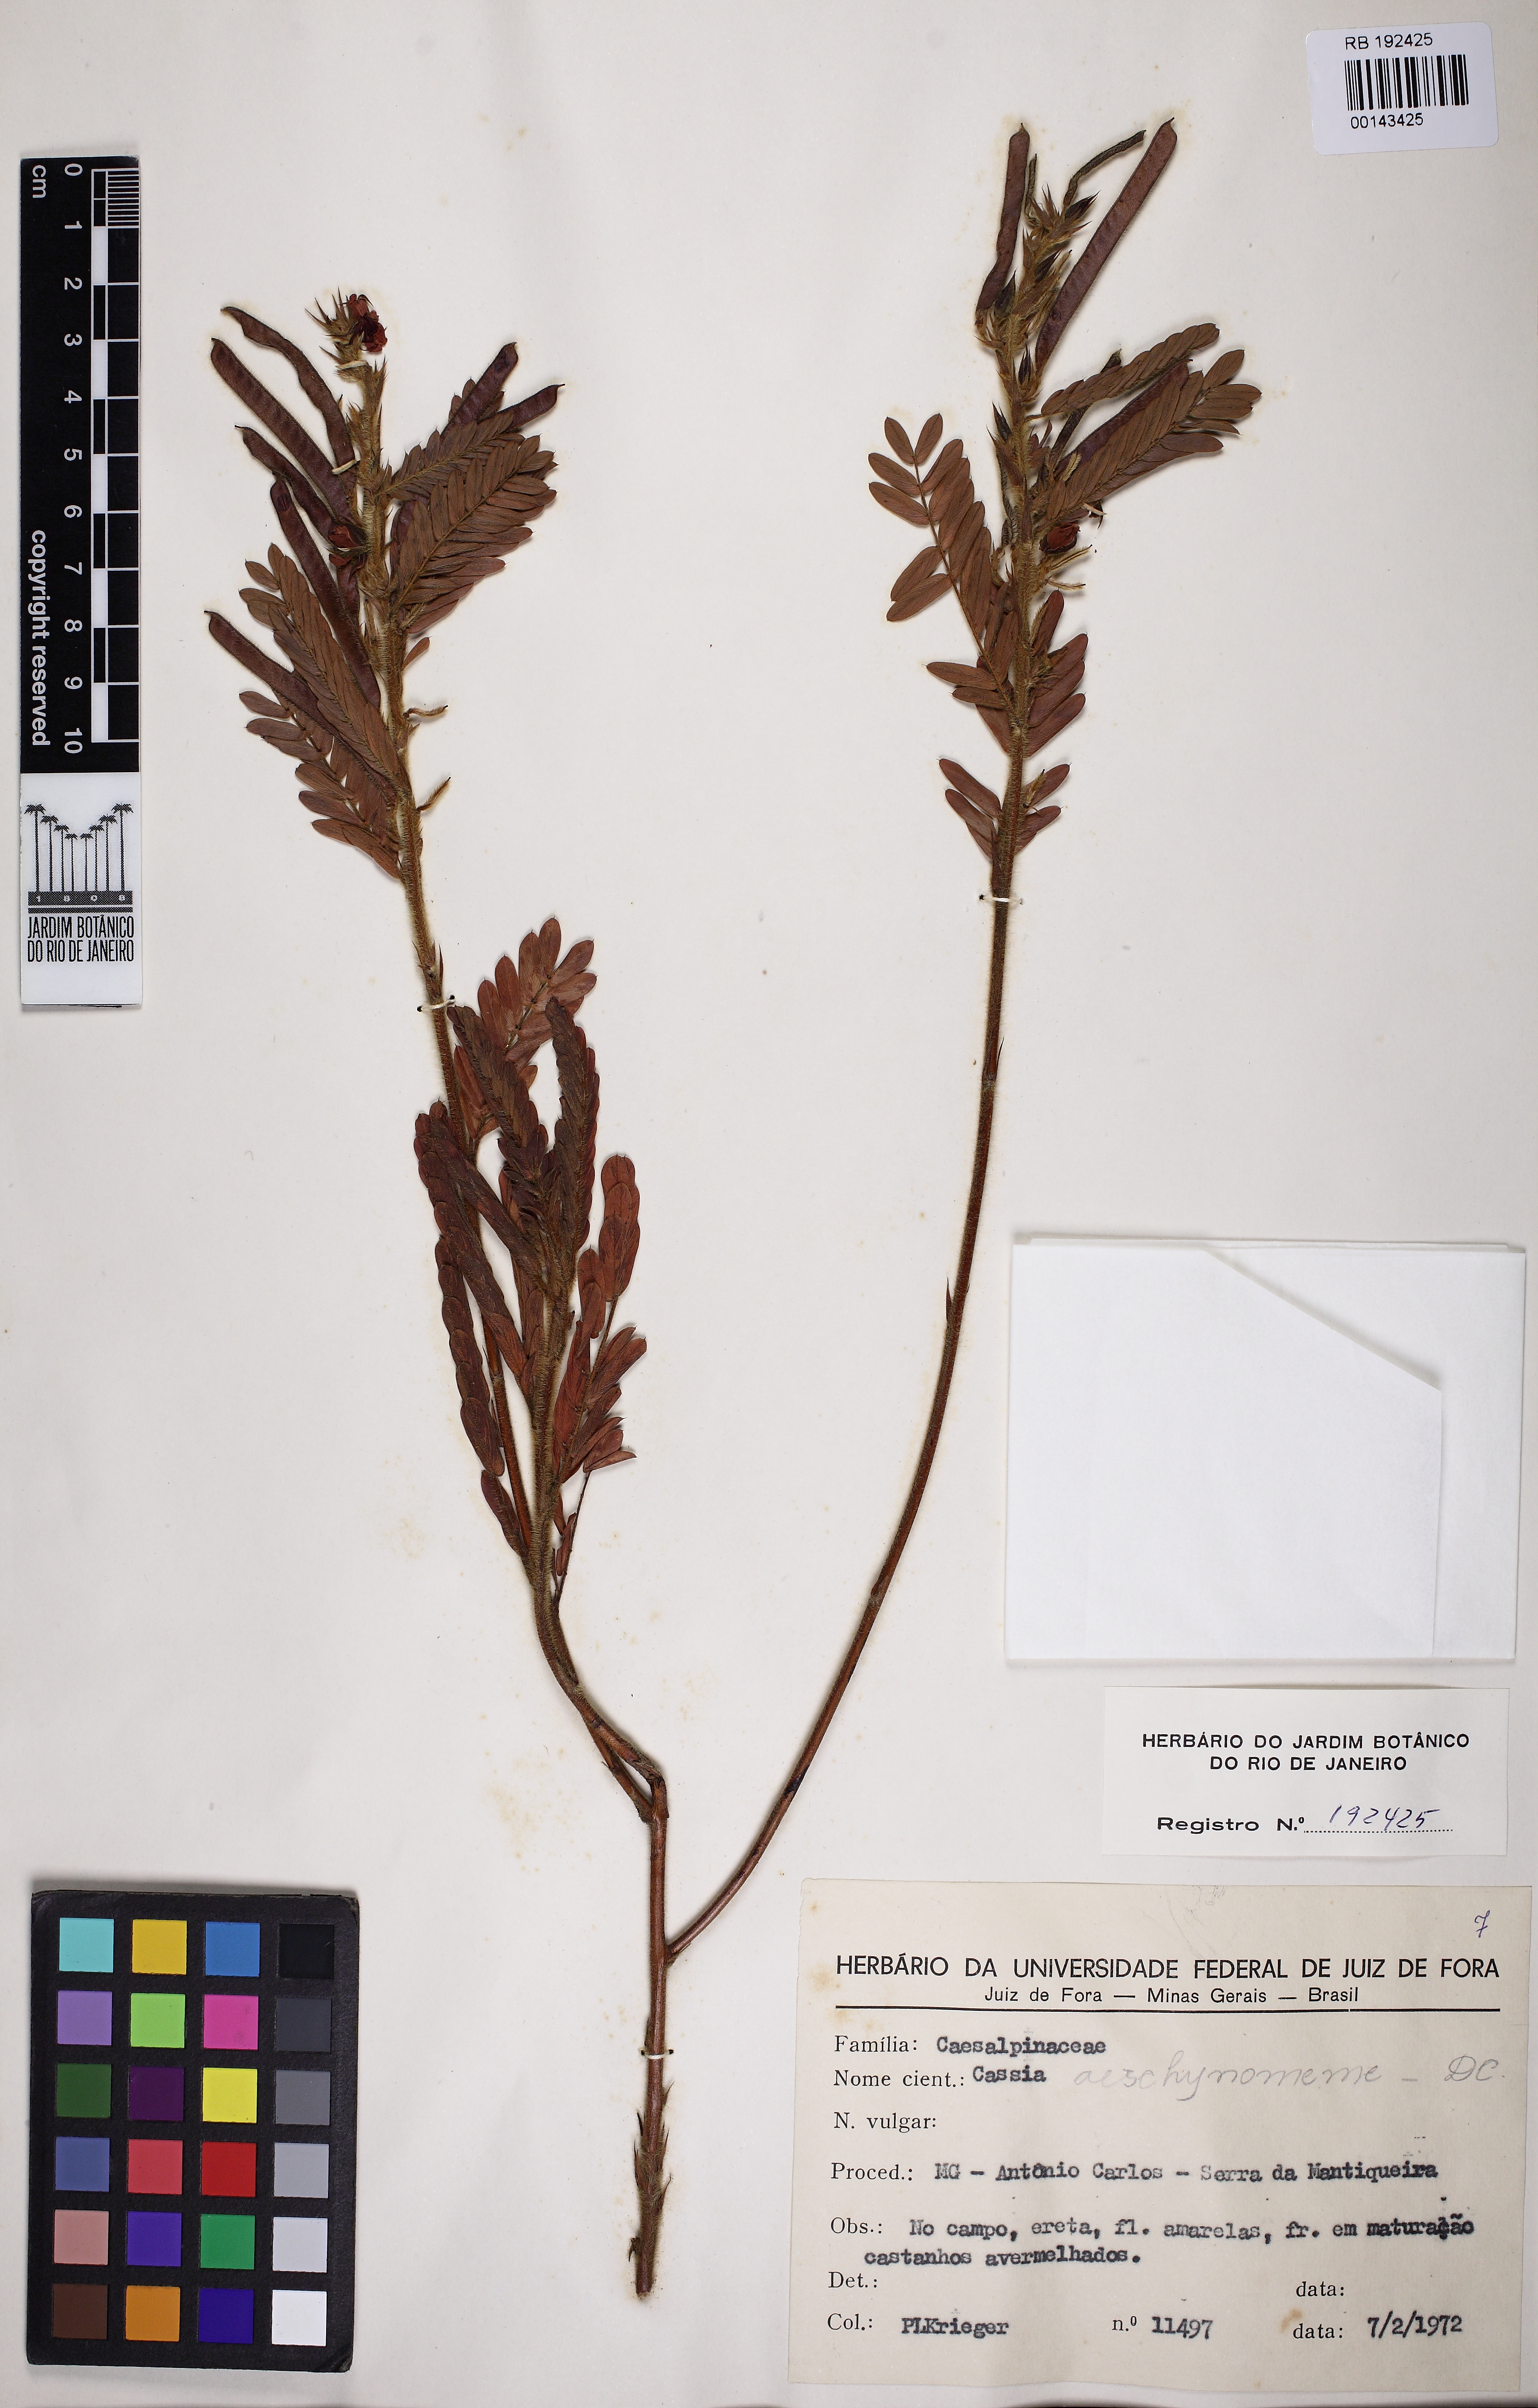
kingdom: Plantae
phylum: Tracheophyta
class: Magnoliopsida
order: Fabales
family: Fabaceae
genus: Chamaecrista
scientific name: Chamaecrista nictitans
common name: Sensitive cassia
